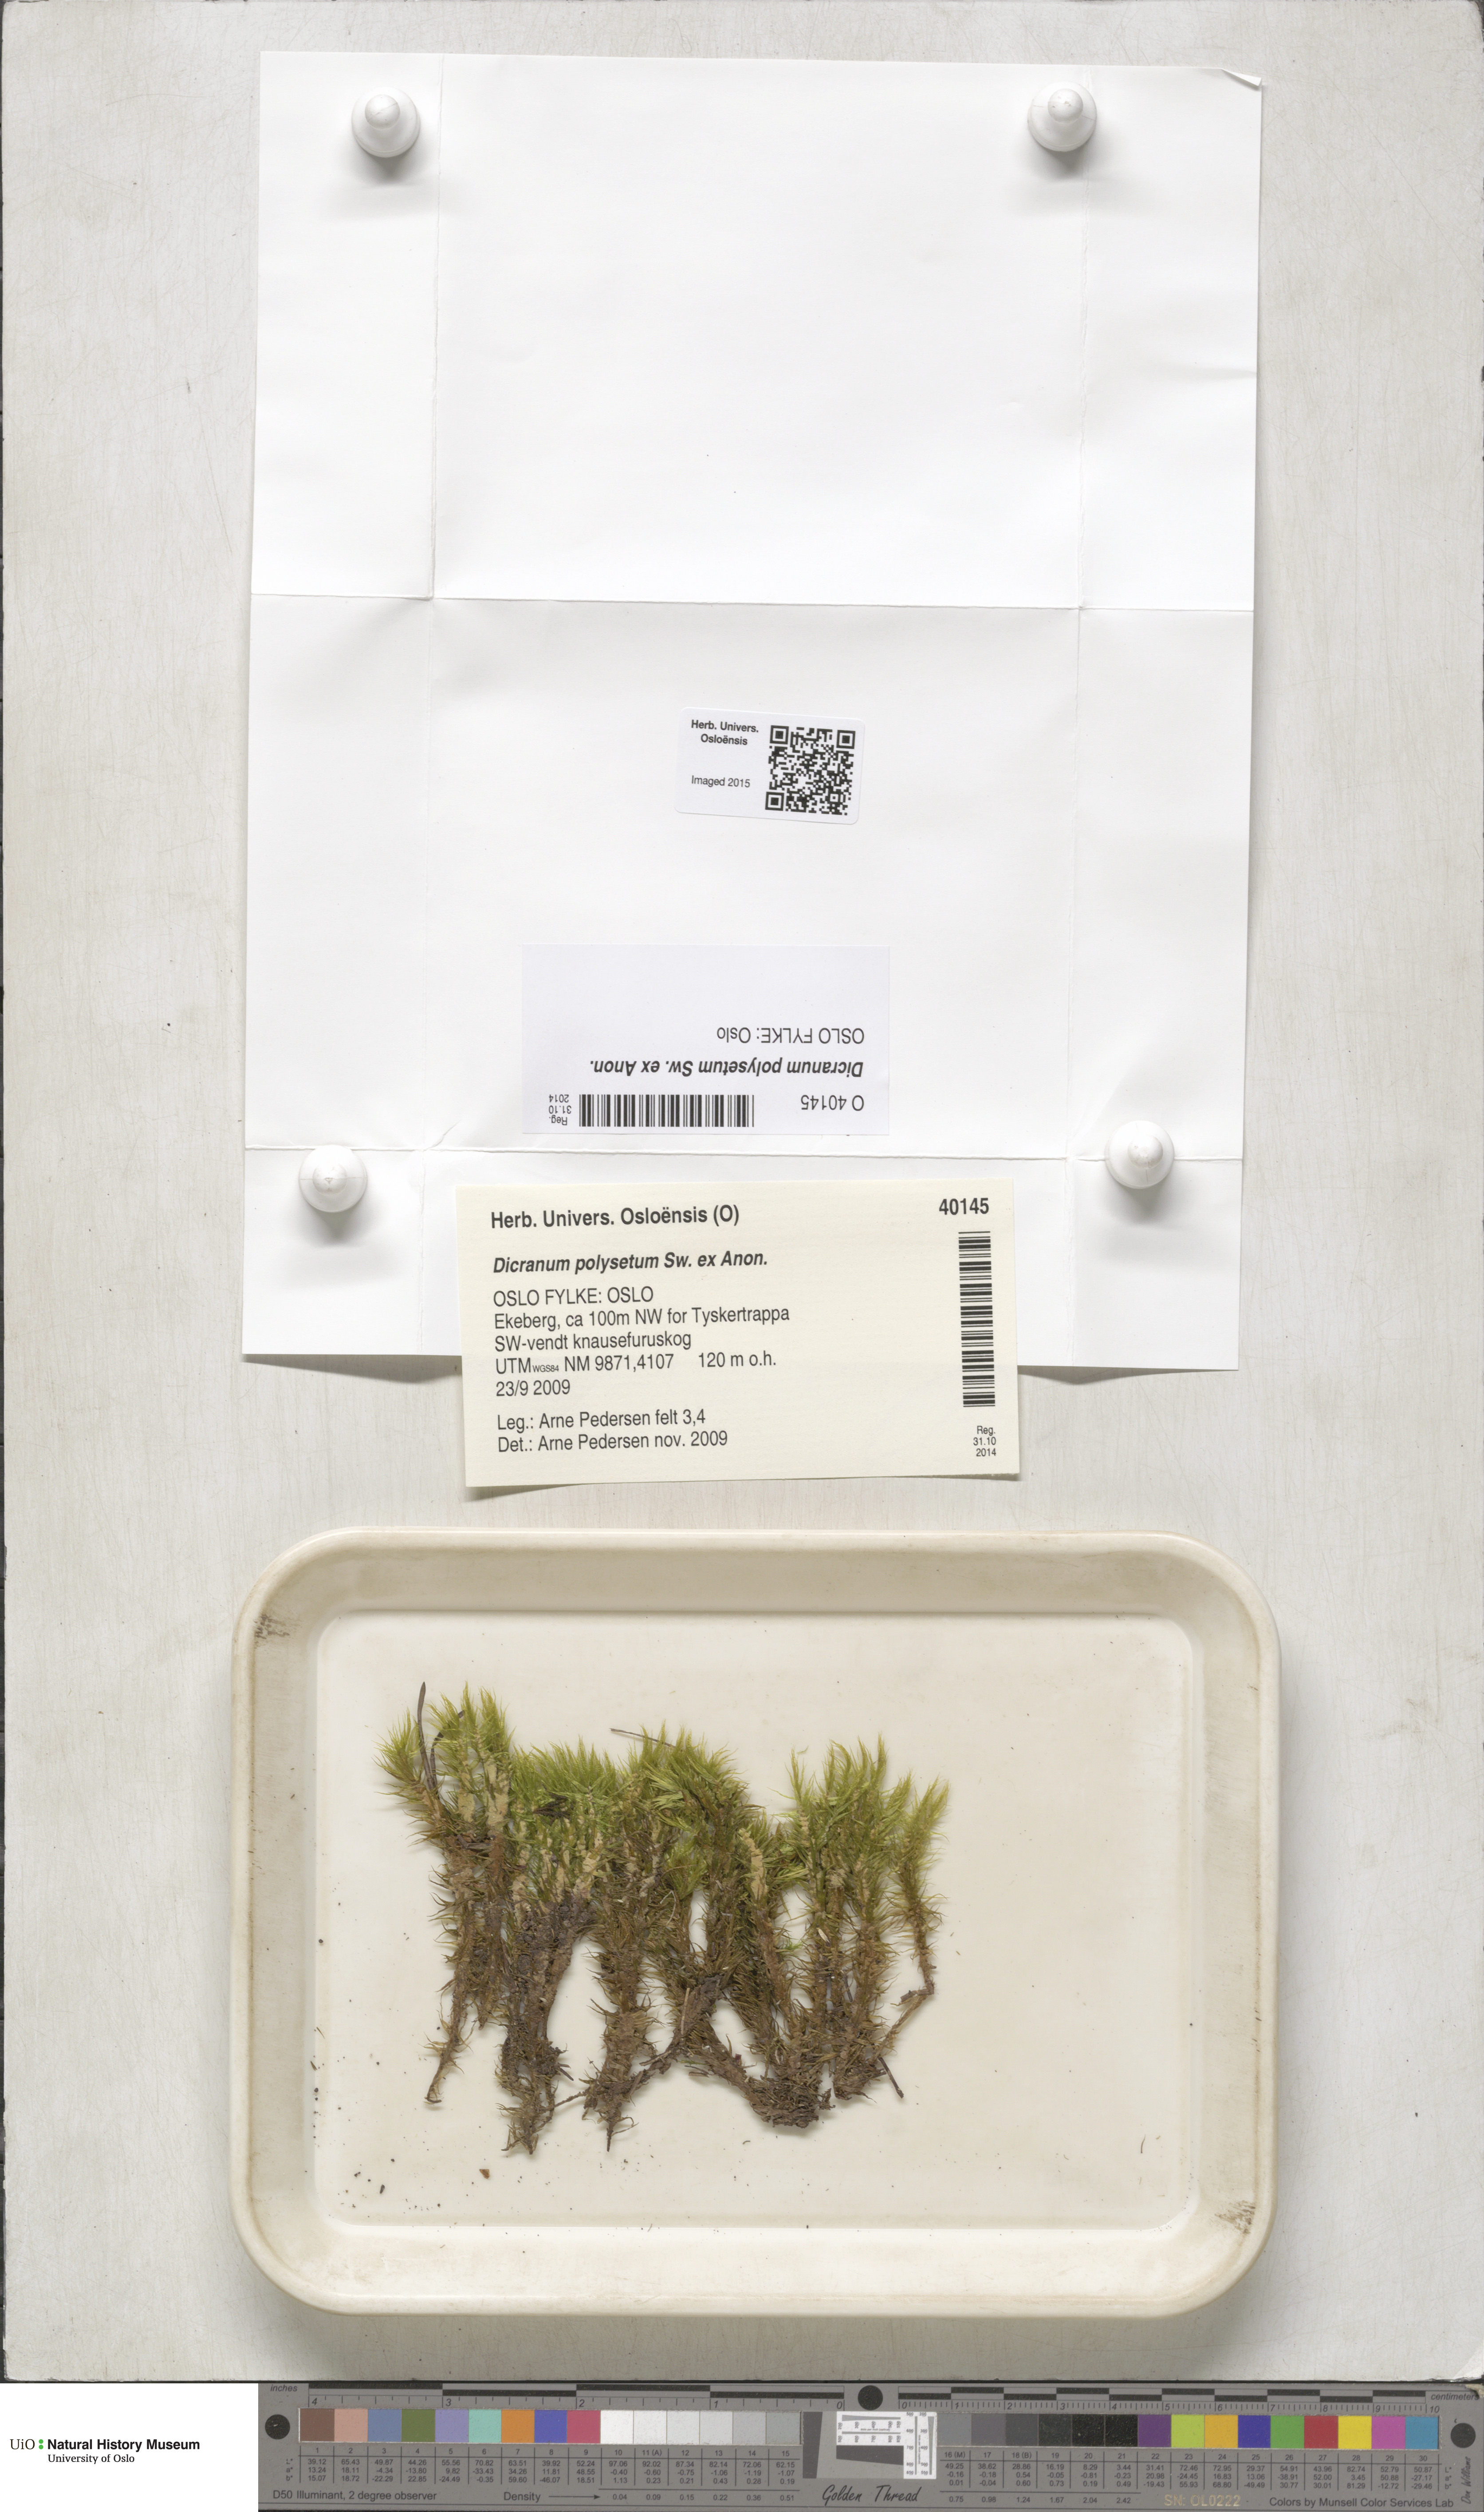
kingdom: Plantae
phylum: Bryophyta
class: Bryopsida
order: Dicranales
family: Dicranaceae
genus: Dicranum
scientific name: Dicranum polysetum
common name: Rugose fork-moss
